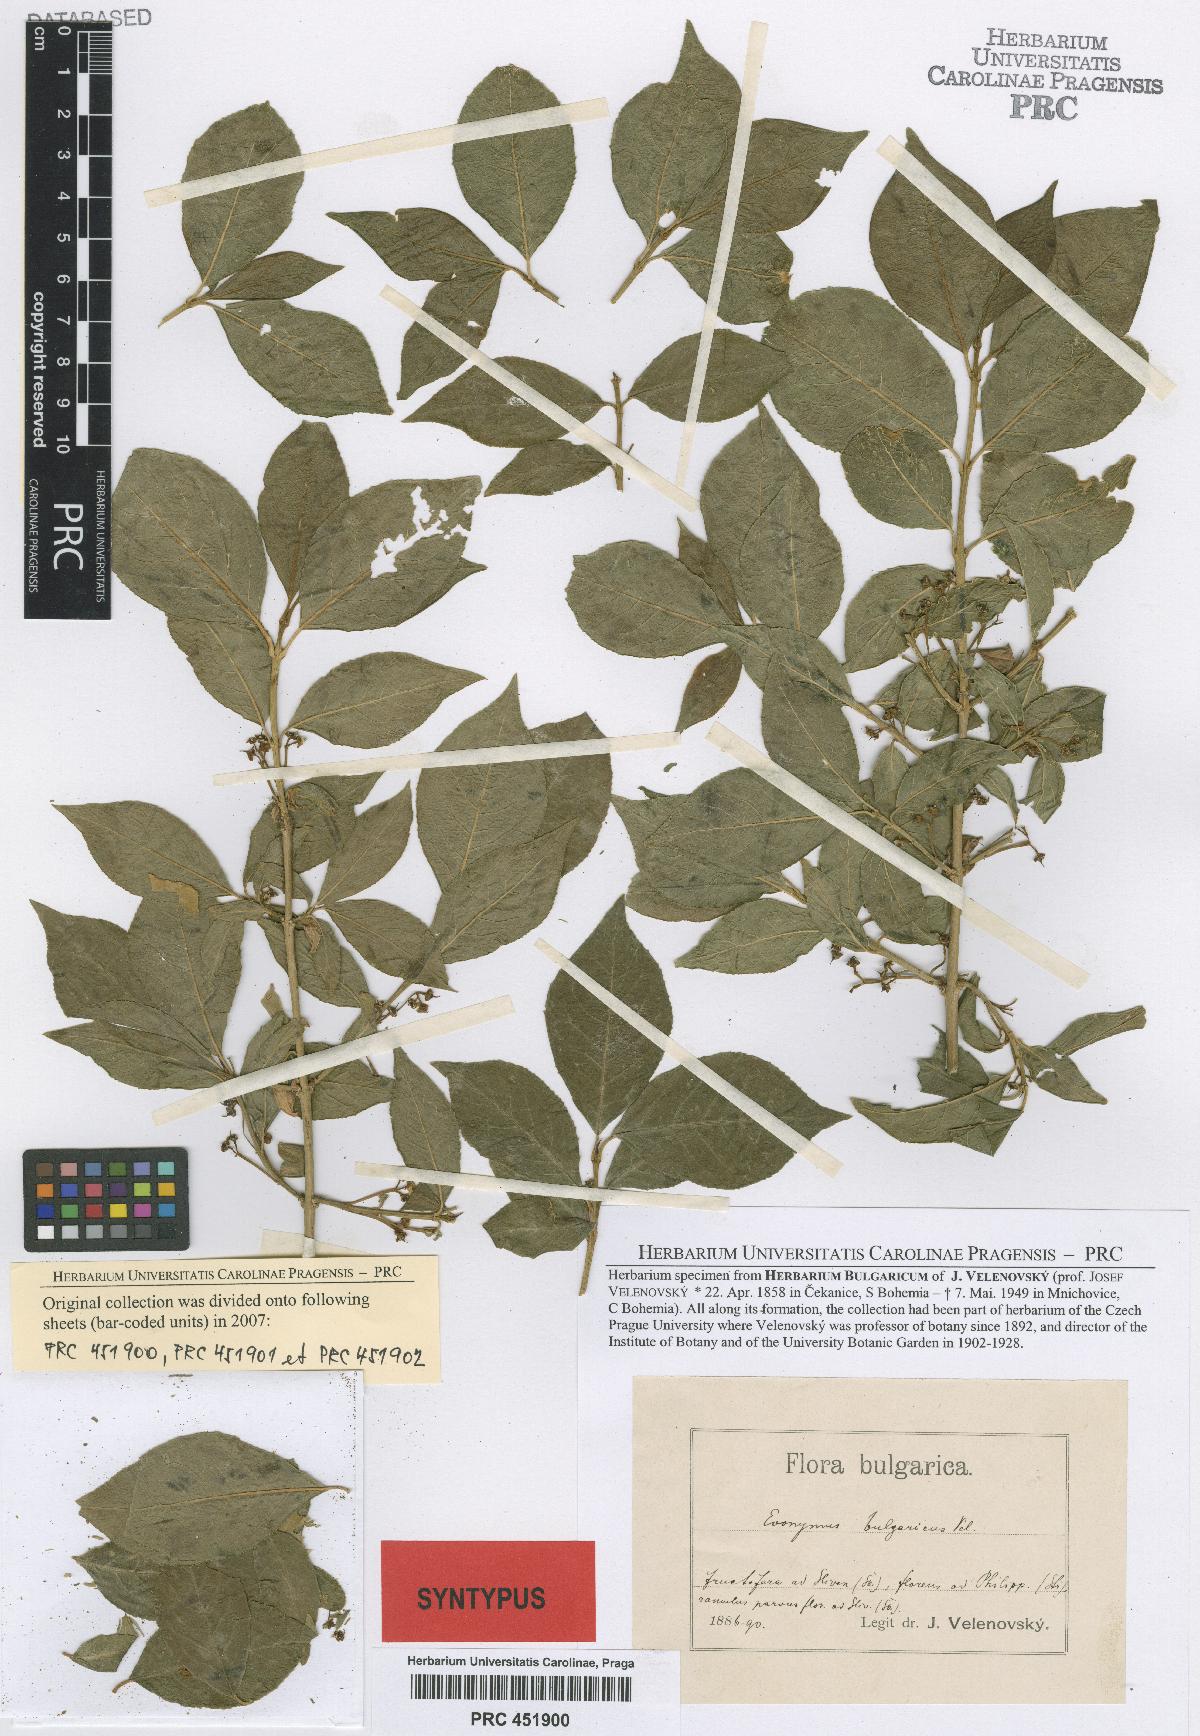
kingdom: Plantae
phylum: Tracheophyta
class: Magnoliopsida
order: Celastrales
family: Celastraceae
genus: Euonymus
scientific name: Euonymus europaeus
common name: Spindle
